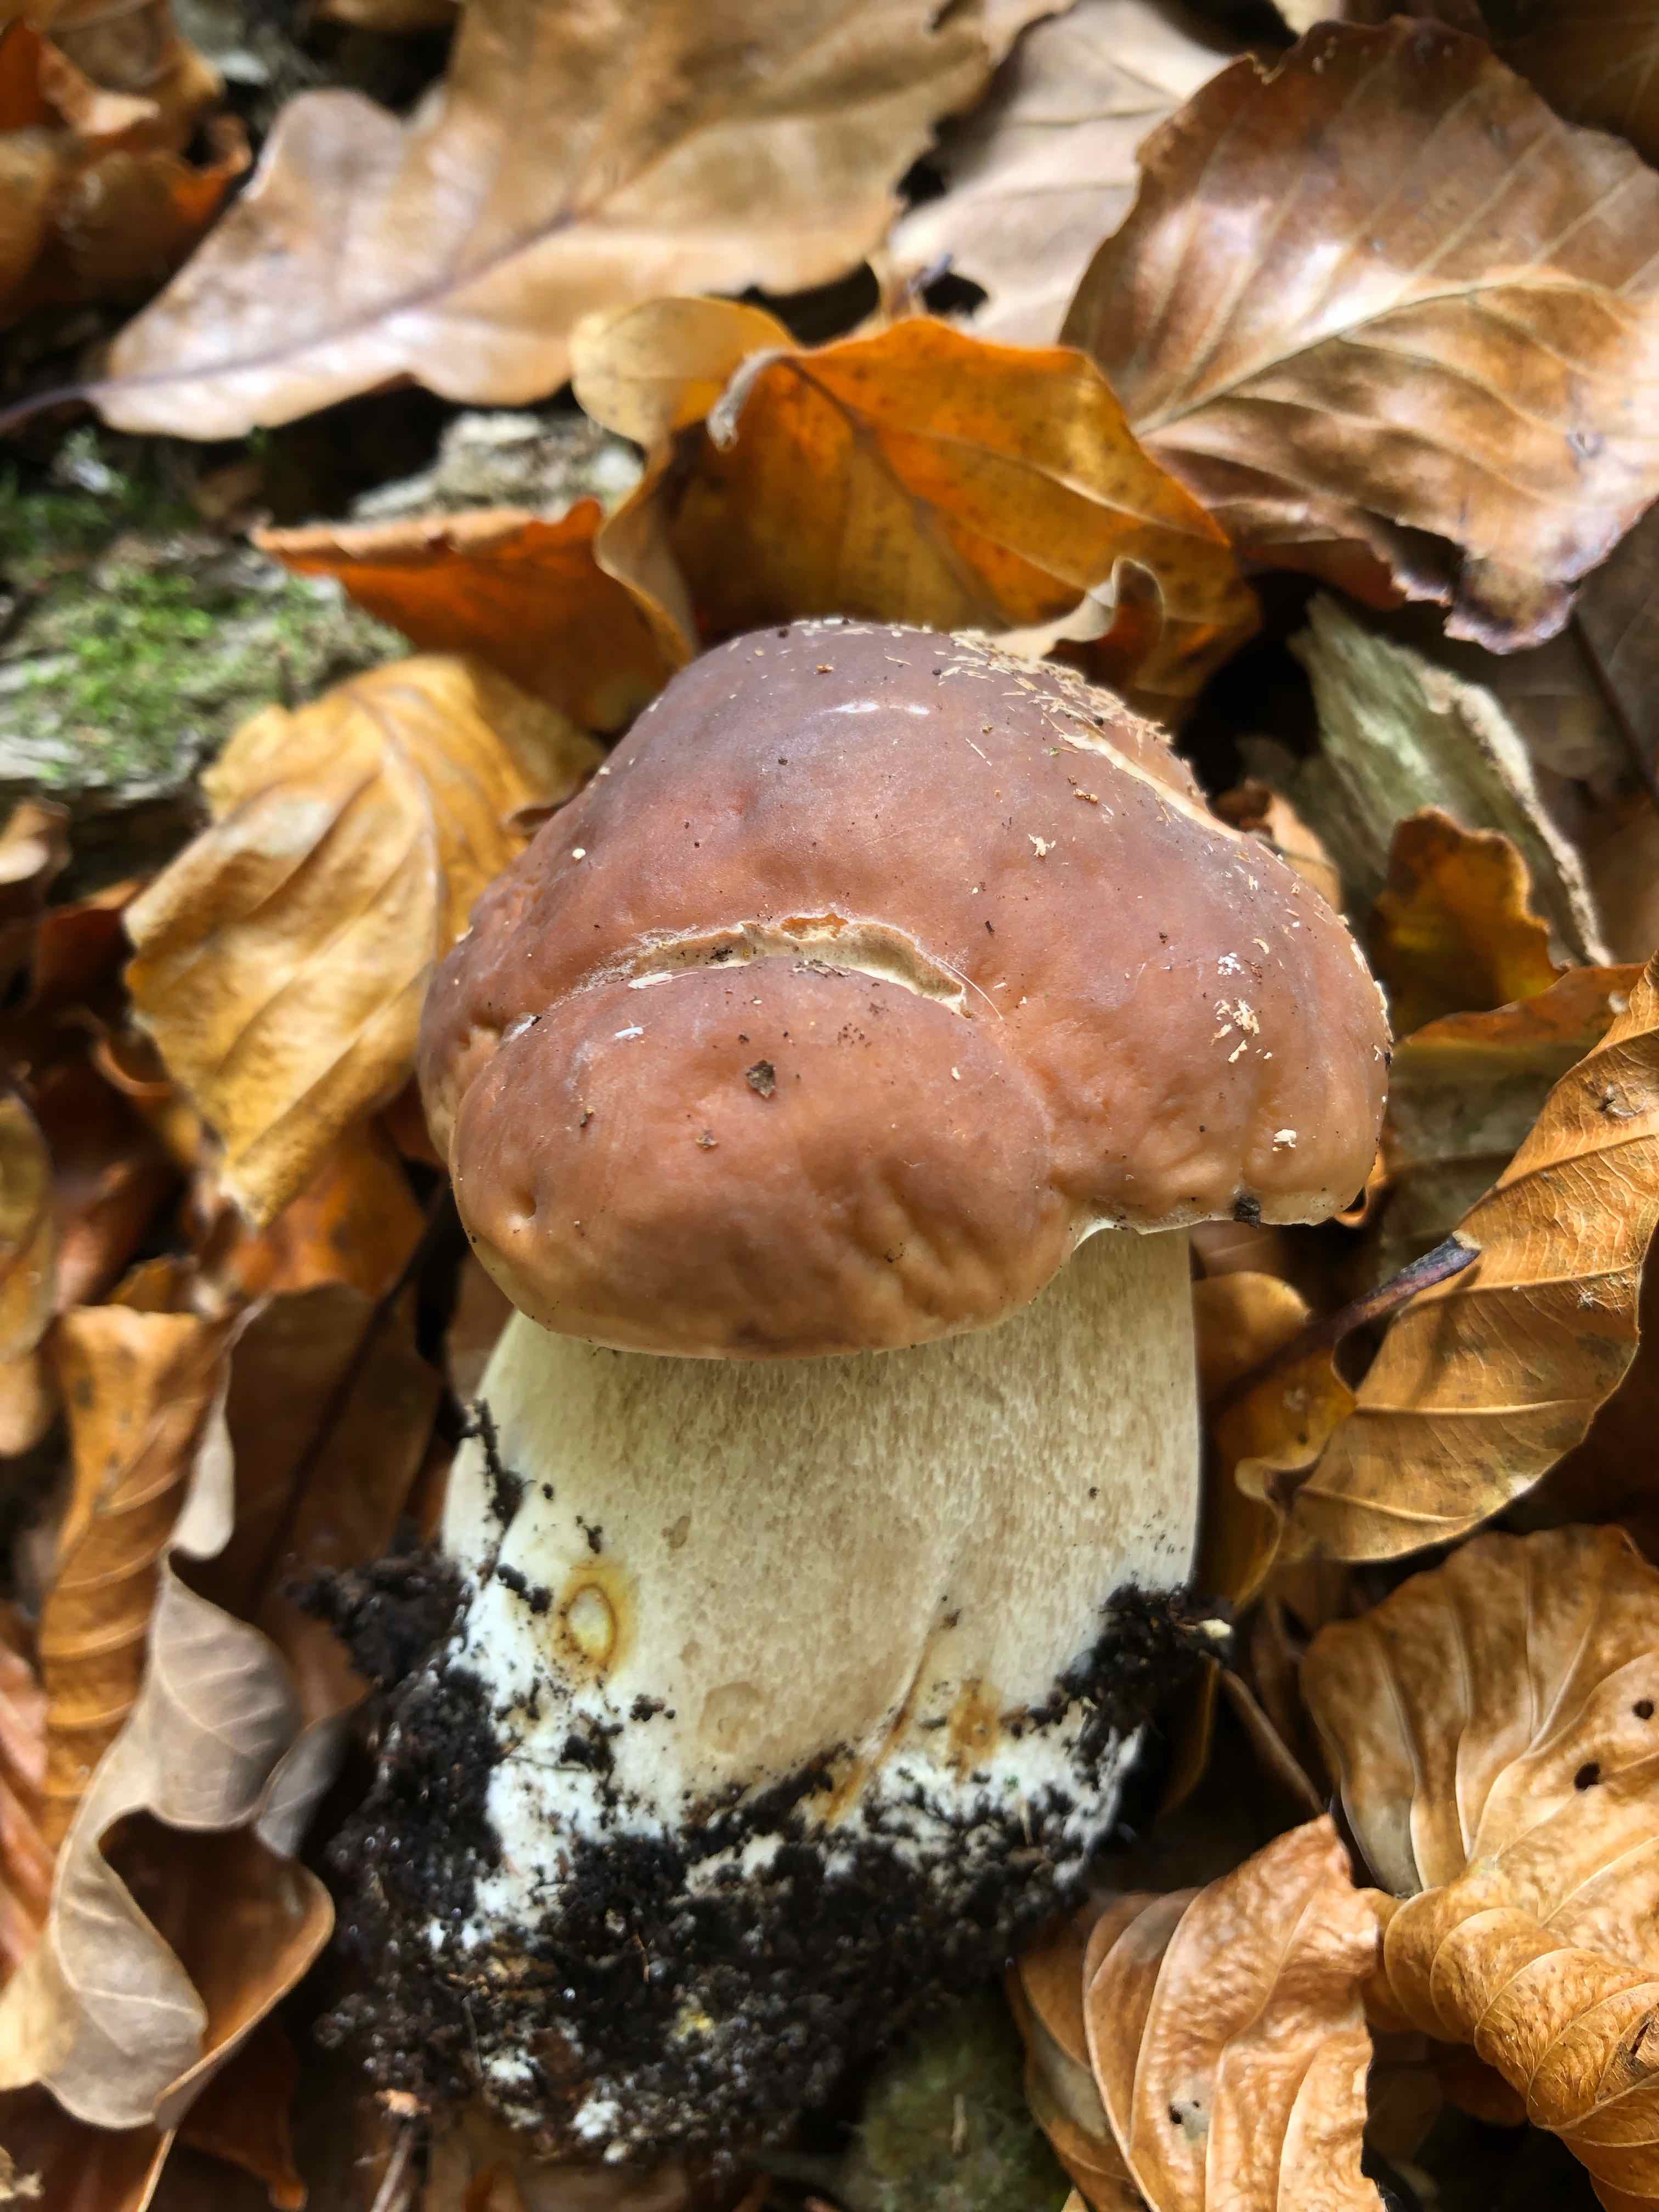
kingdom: Fungi
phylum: Basidiomycota
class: Agaricomycetes
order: Boletales
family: Boletaceae
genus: Boletus
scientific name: Boletus edulis
